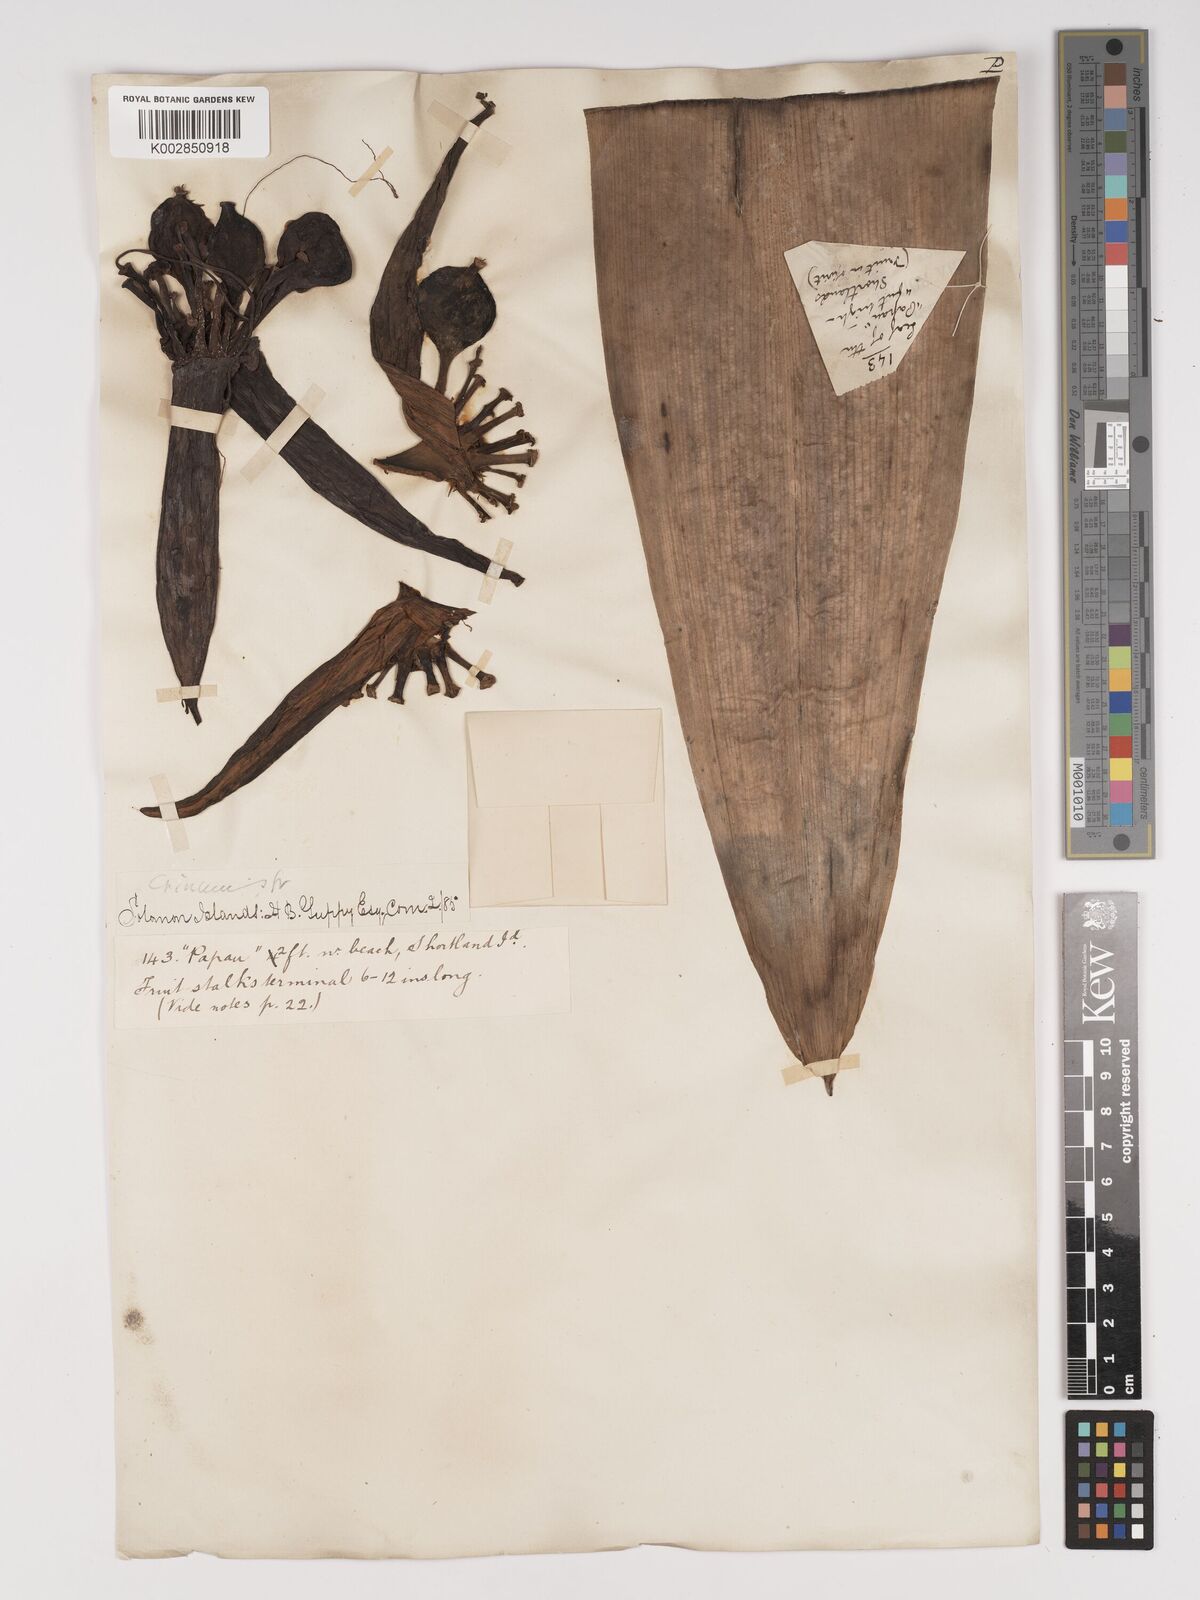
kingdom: Plantae
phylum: Tracheophyta
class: Liliopsida
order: Asparagales
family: Amaryllidaceae
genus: Crinum
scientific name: Crinum asiaticum
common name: Poisonbulb
